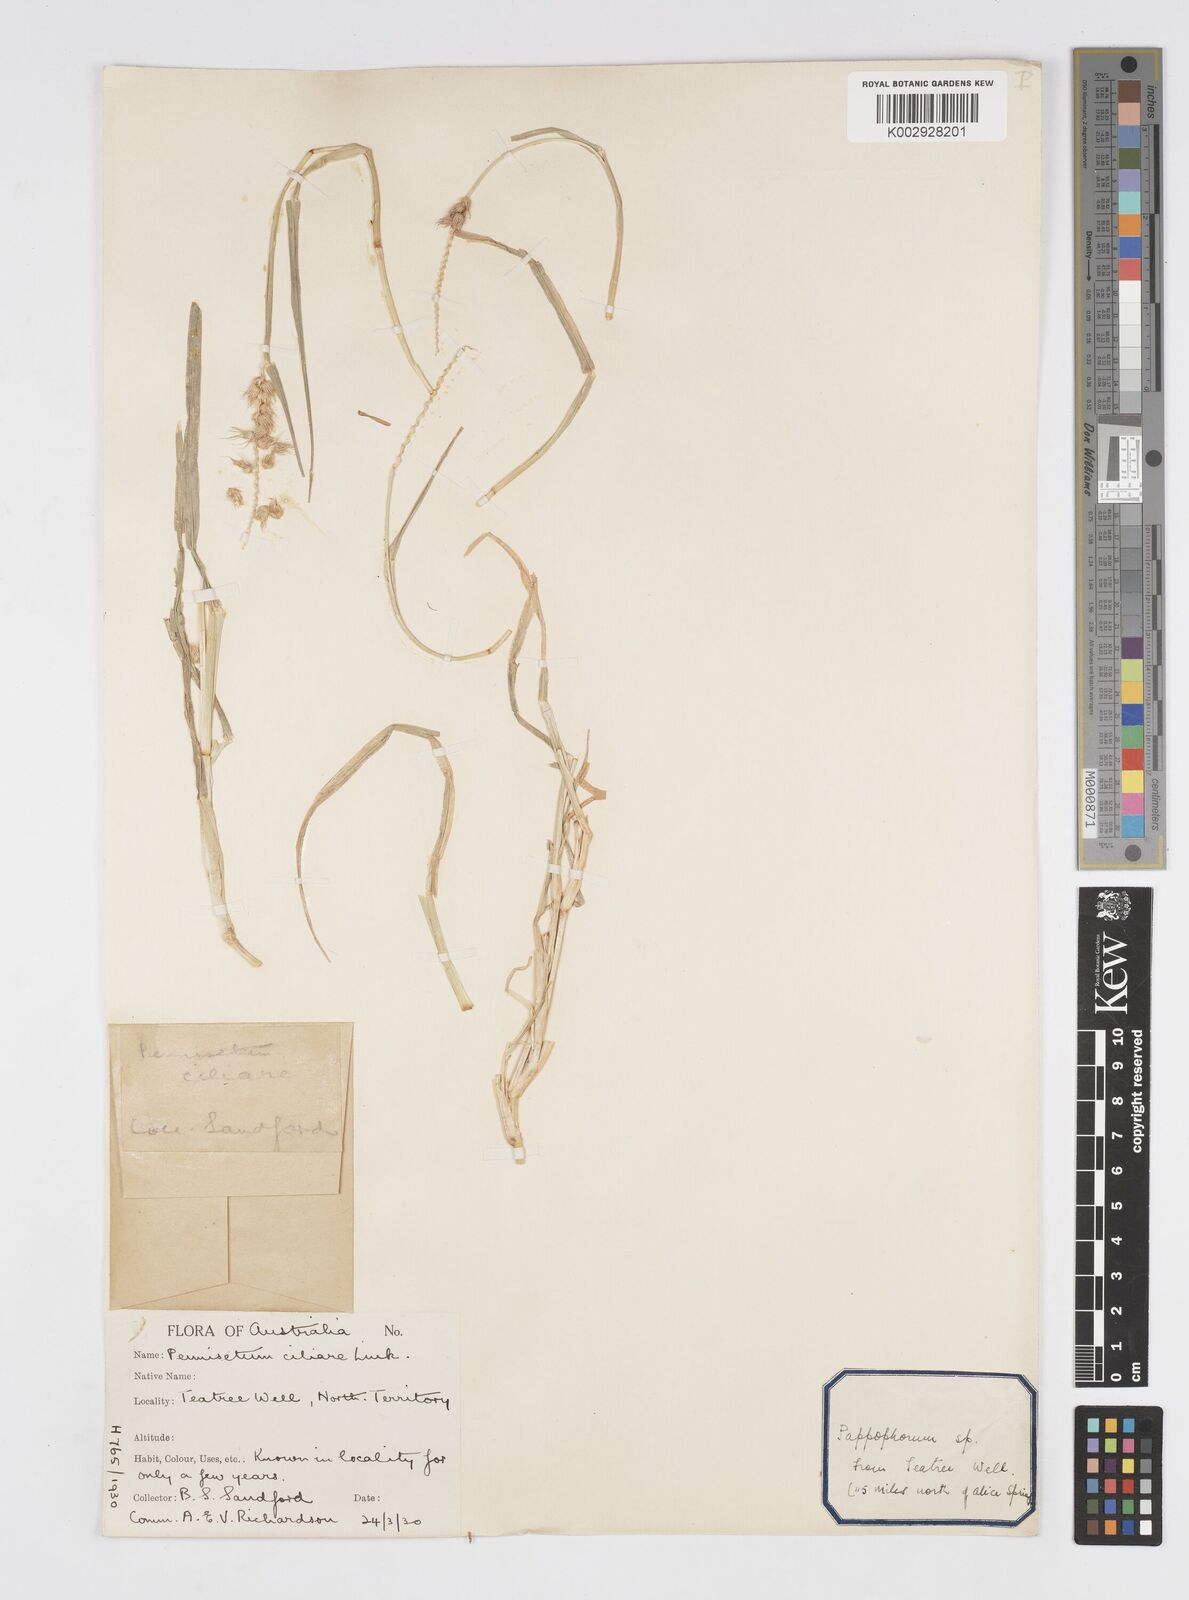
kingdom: Plantae
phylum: Tracheophyta
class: Liliopsida
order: Poales
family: Poaceae
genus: Cenchrus
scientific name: Cenchrus pennisetiformis
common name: Cloncurry
